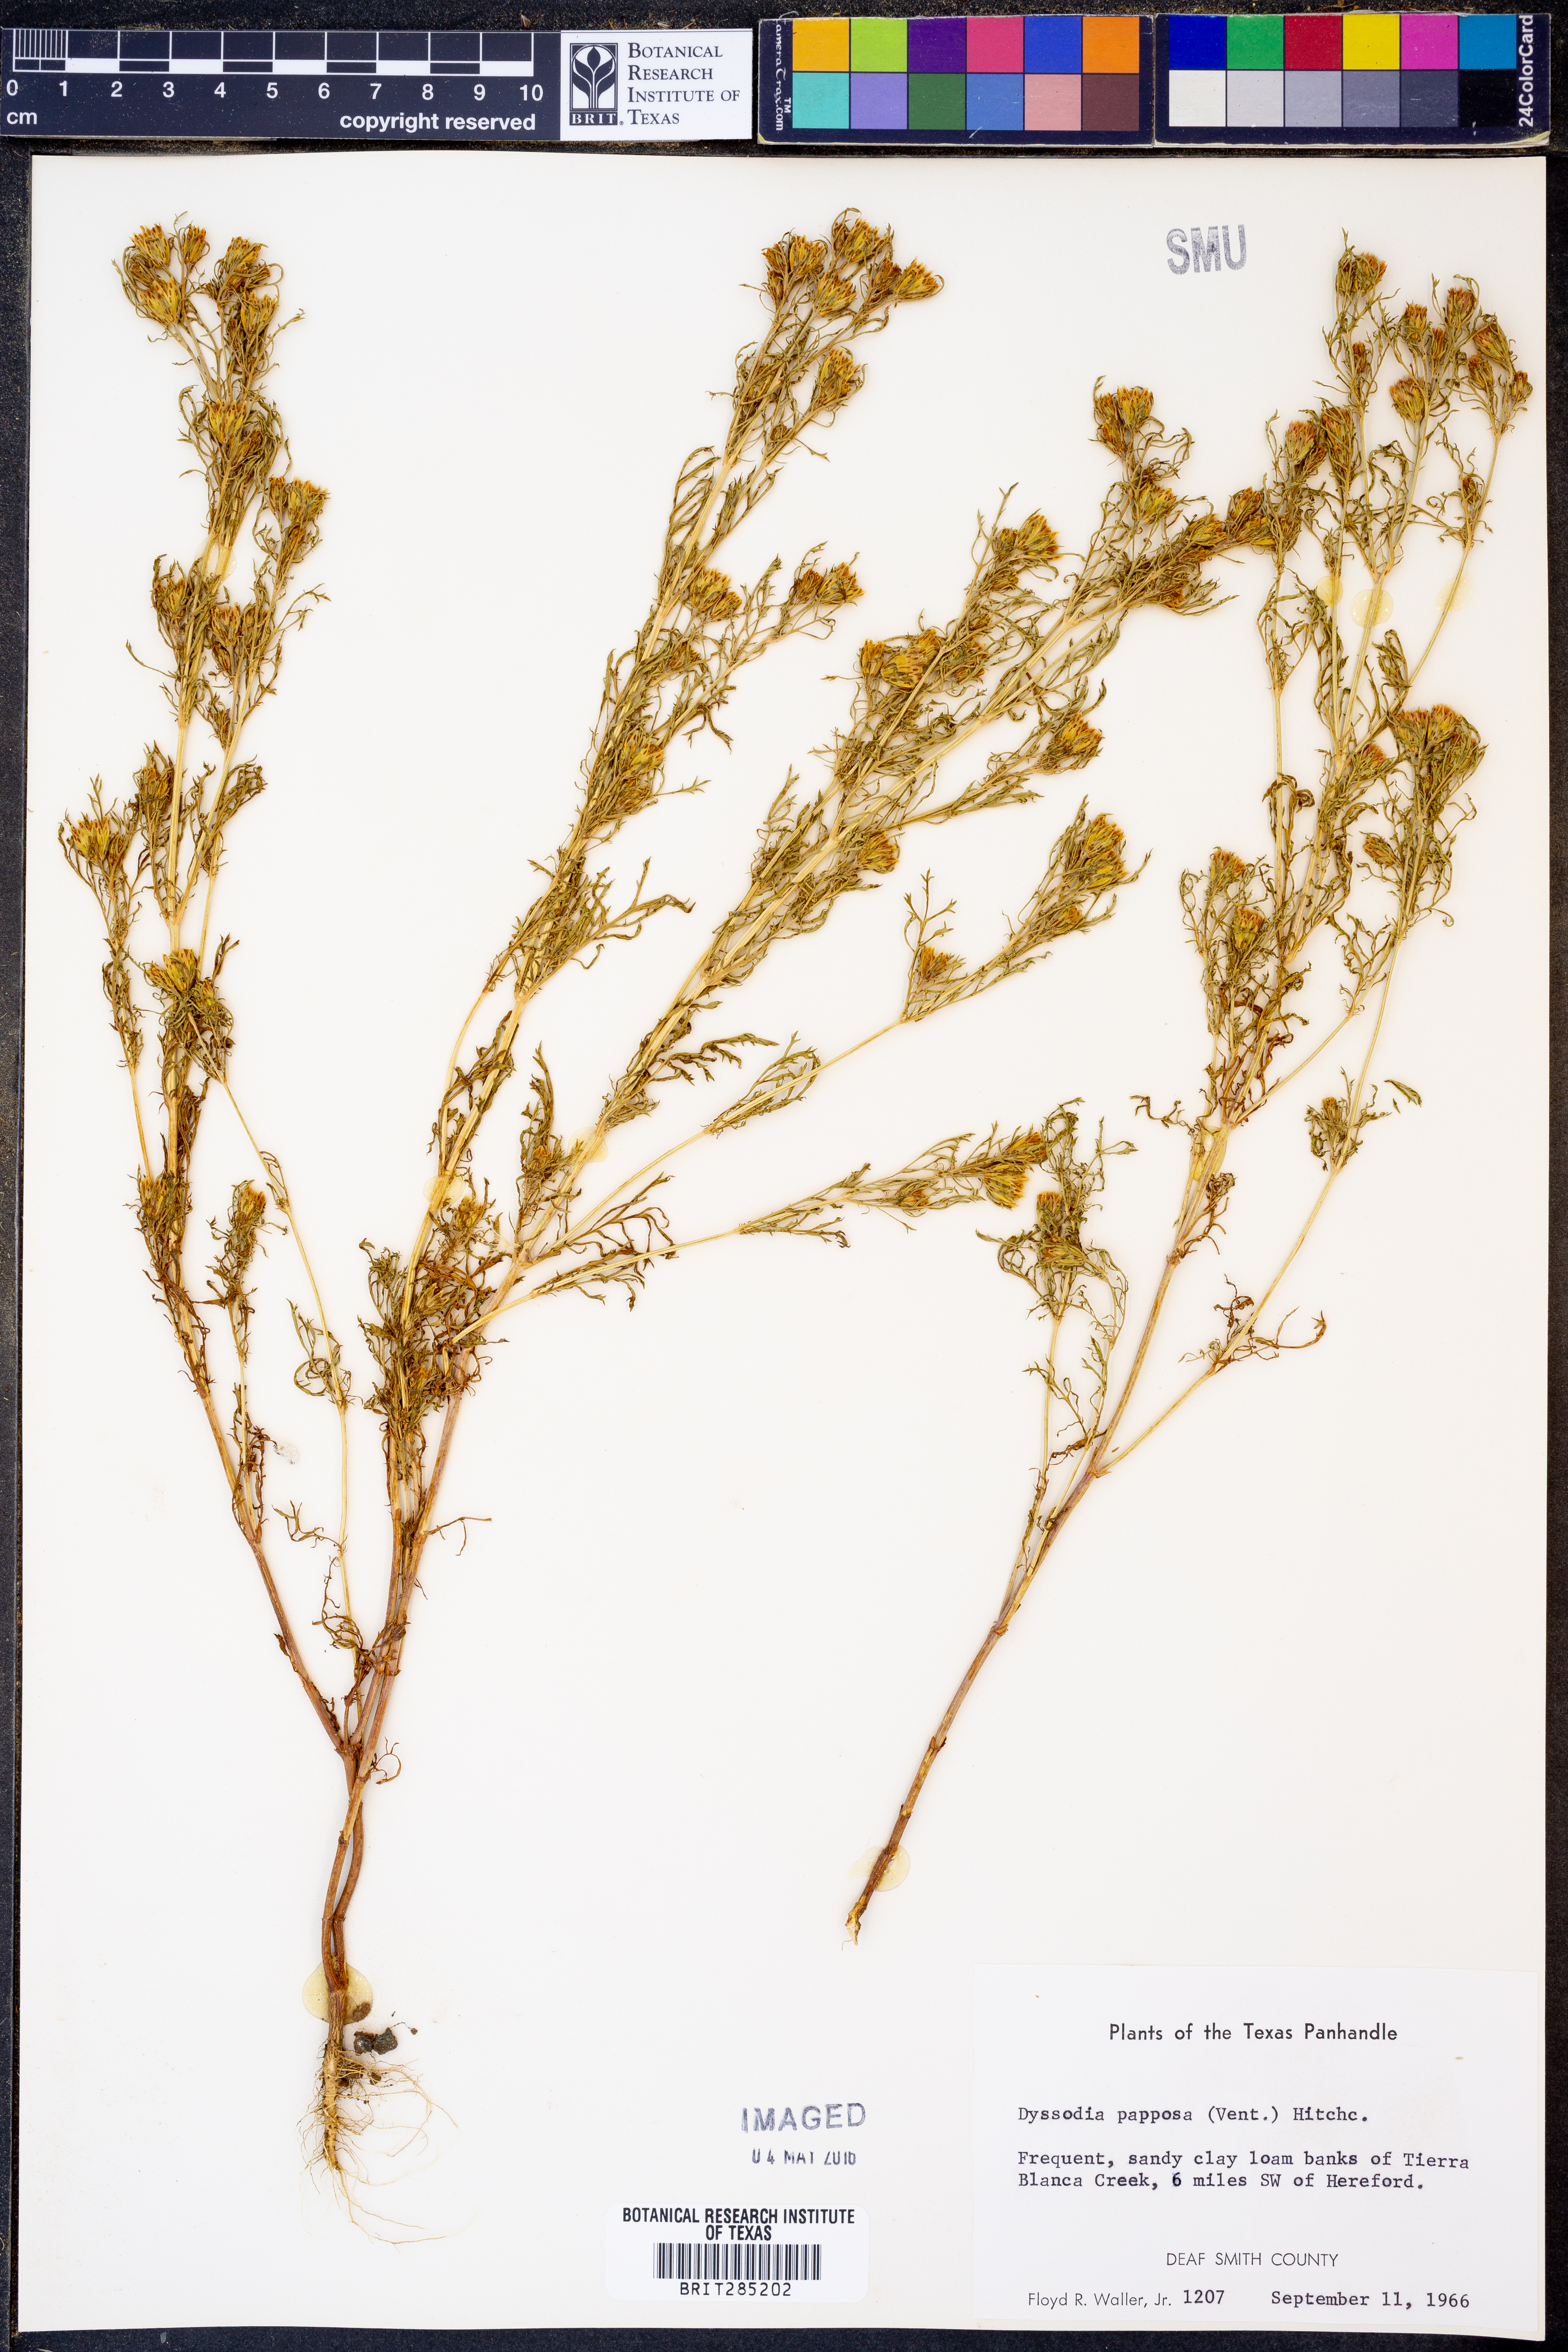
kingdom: Plantae
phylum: Tracheophyta
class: Magnoliopsida
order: Asterales
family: Asteraceae
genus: Dyssodia
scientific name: Dyssodia papposa
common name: Dogweed
